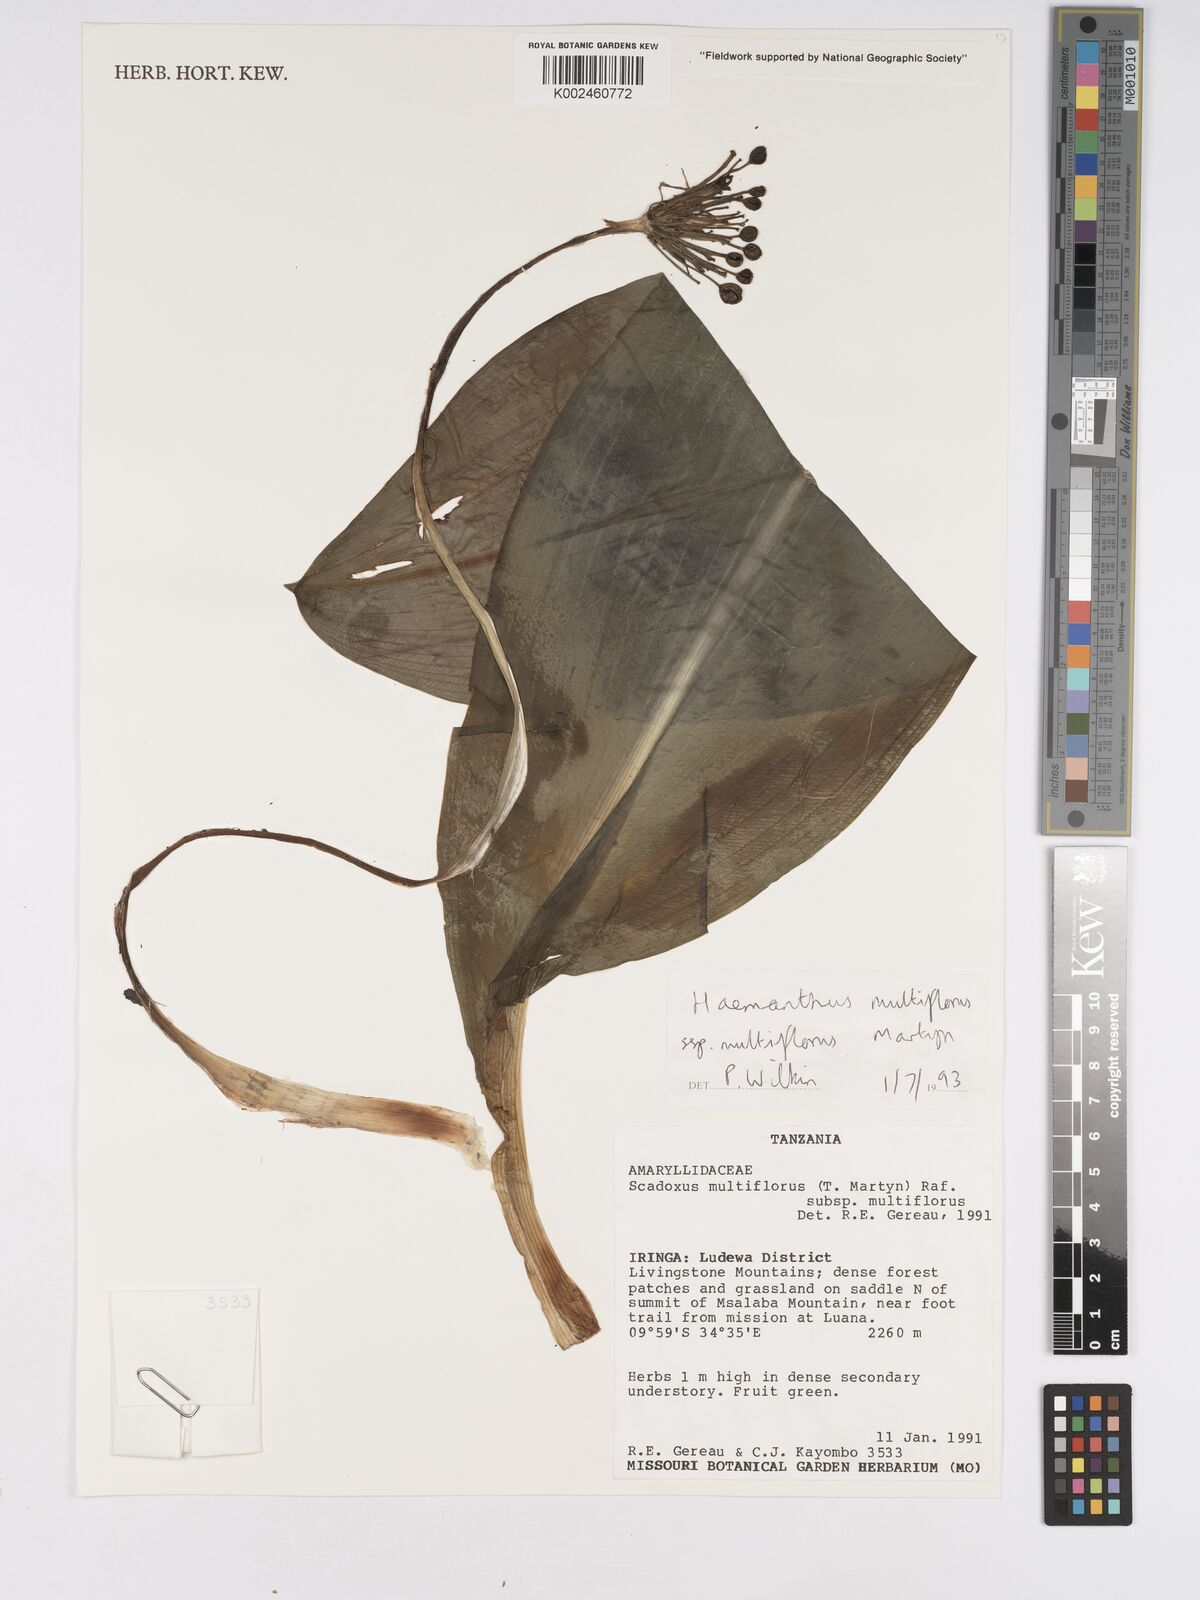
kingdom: Plantae
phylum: Tracheophyta
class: Liliopsida
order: Asparagales
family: Amaryllidaceae
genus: Scadoxus
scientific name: Scadoxus multiflorus
